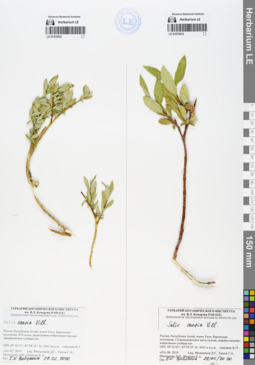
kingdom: Plantae
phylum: Tracheophyta
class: Magnoliopsida
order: Malpighiales
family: Salicaceae
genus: Salix
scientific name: Salix caesia
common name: Blue willow
